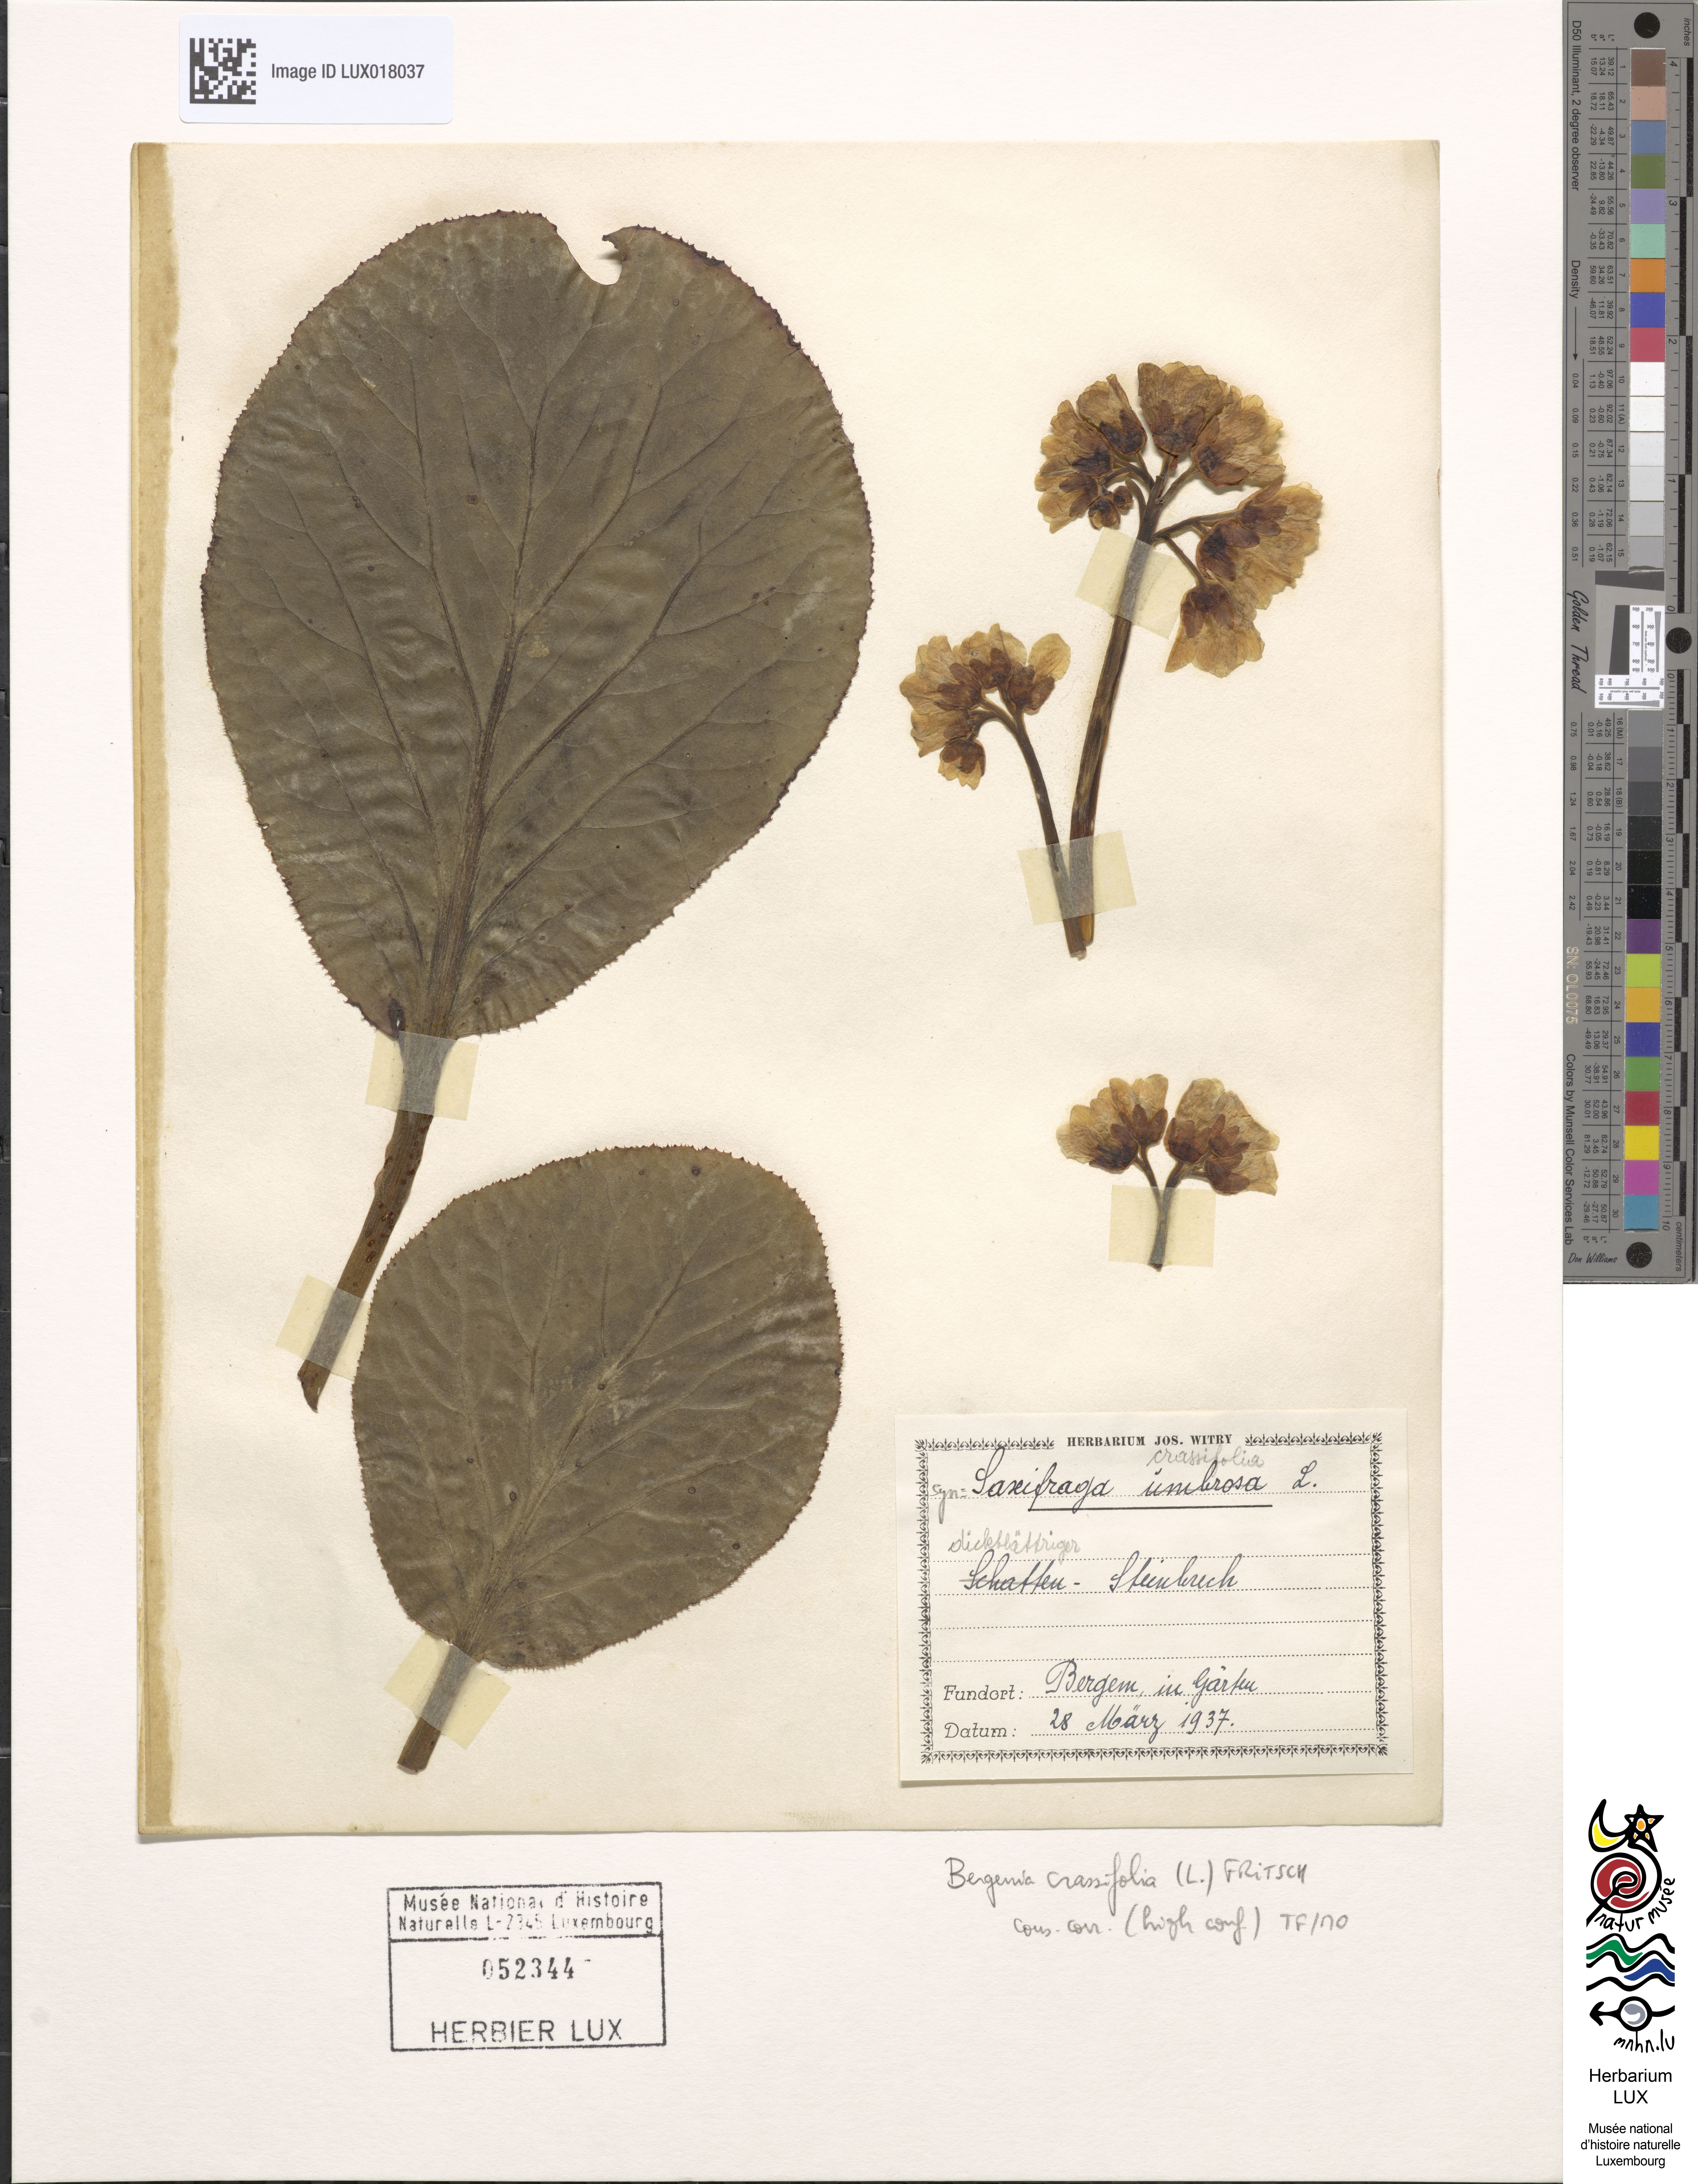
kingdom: Plantae
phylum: Tracheophyta
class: Magnoliopsida
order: Saxifragales
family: Saxifragaceae
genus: Bergenia
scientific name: Bergenia crassifolia
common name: Elephant-ears
